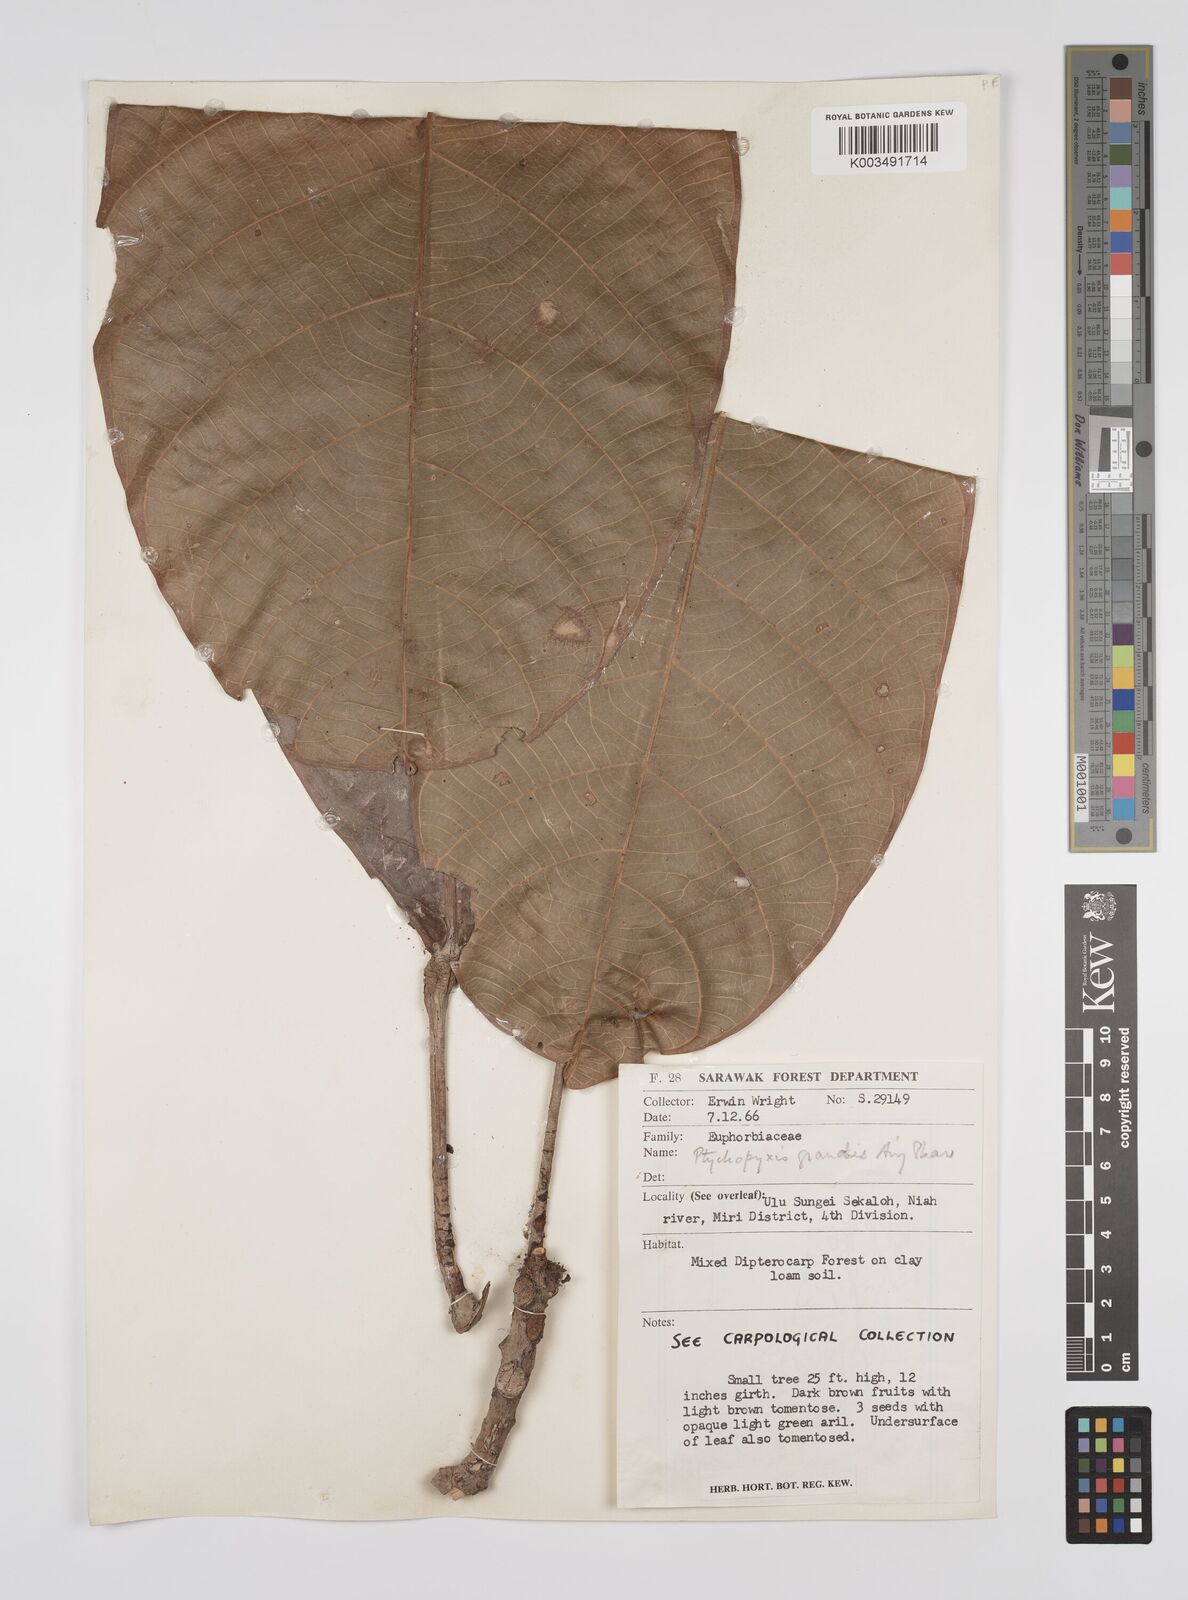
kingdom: Plantae
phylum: Tracheophyta
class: Magnoliopsida
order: Malpighiales
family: Euphorbiaceae
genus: Ptychopyxis
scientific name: Ptychopyxis grandis
